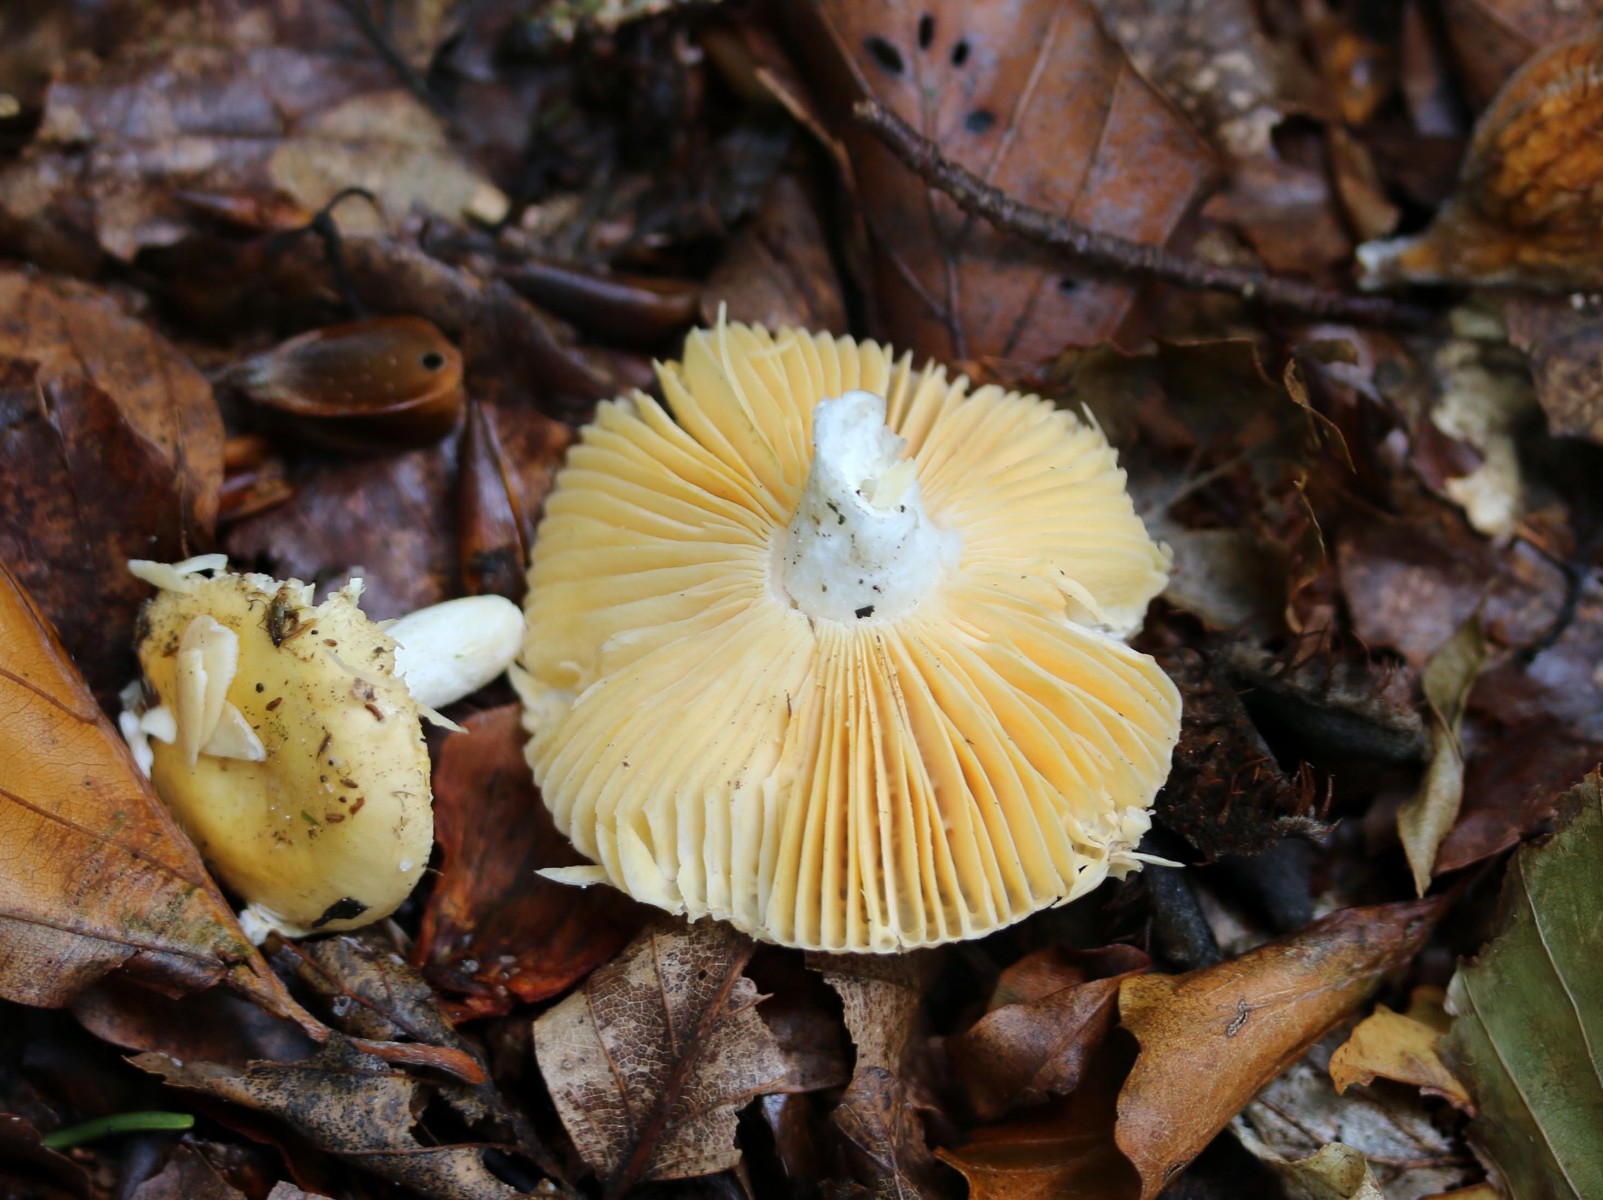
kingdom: Fungi
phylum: Basidiomycota
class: Agaricomycetes
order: Russulales
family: Russulaceae
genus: Russula
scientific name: Russula risigallina
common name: abrikos-skørhat
